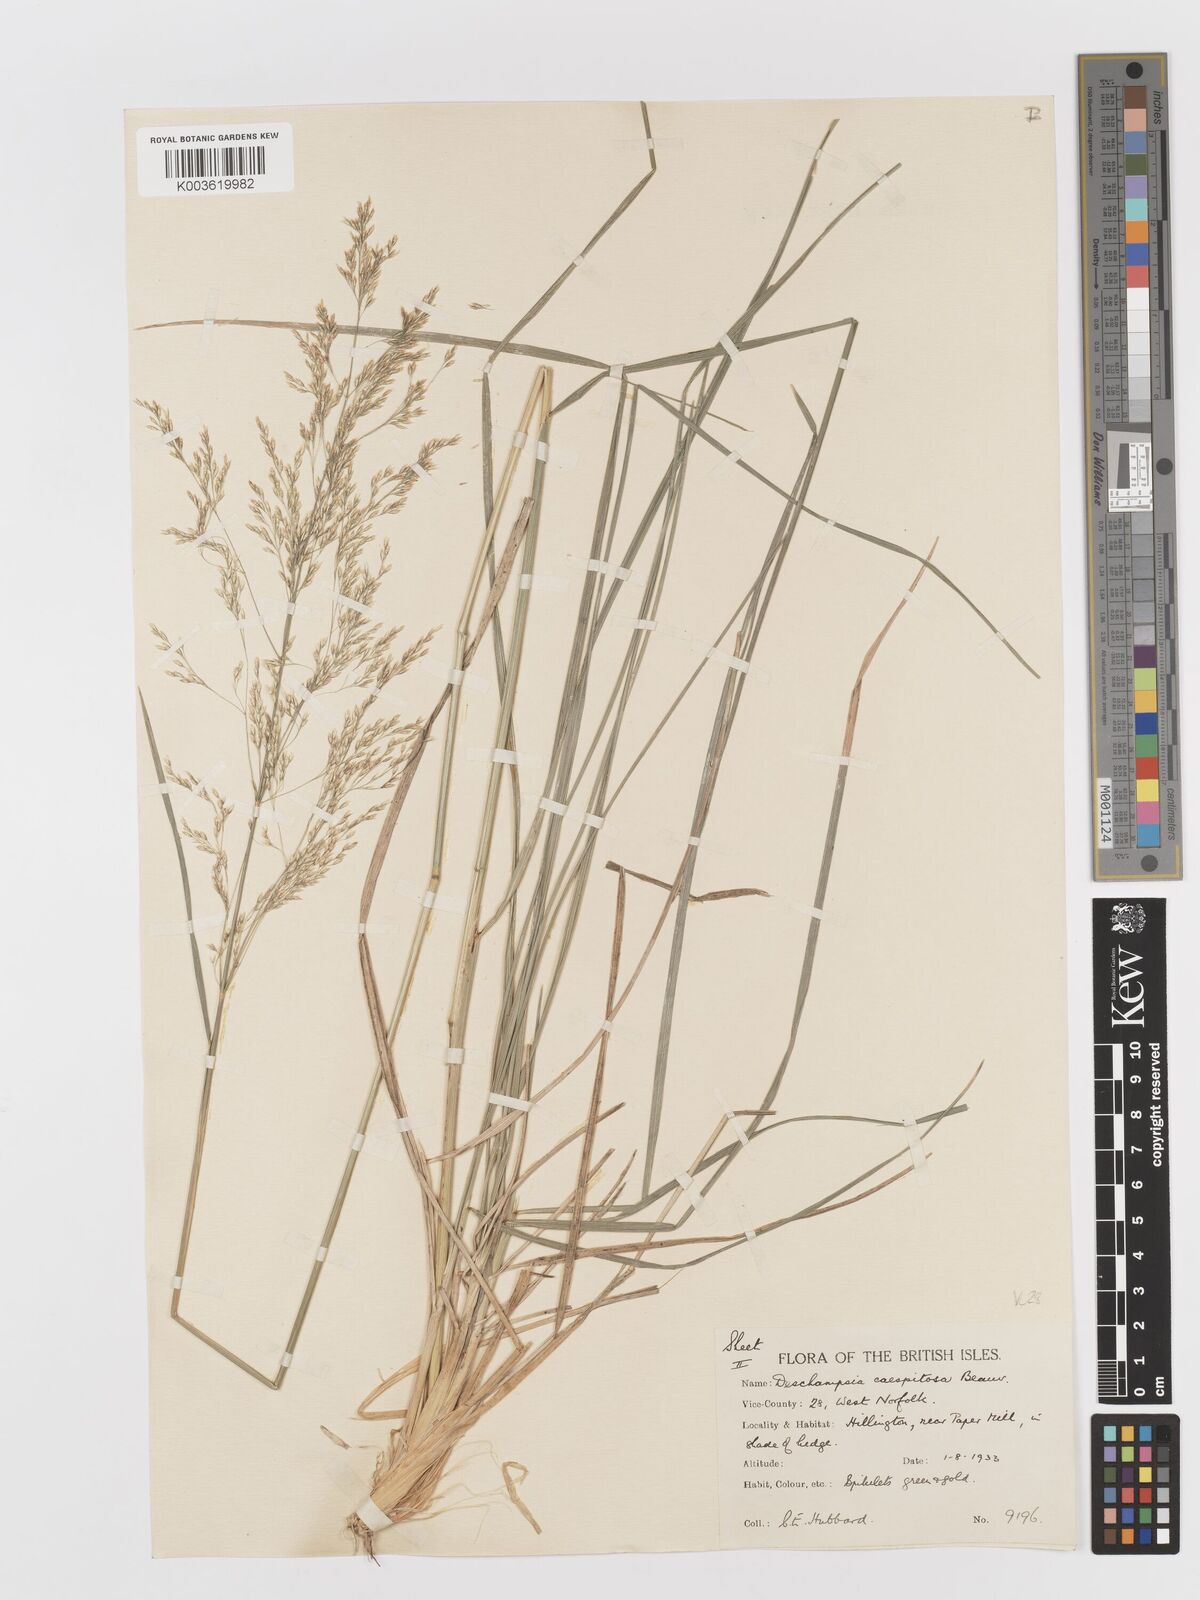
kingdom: Plantae
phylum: Tracheophyta
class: Liliopsida
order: Poales
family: Poaceae
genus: Deschampsia
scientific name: Deschampsia cespitosa
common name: Tufted hair-grass
